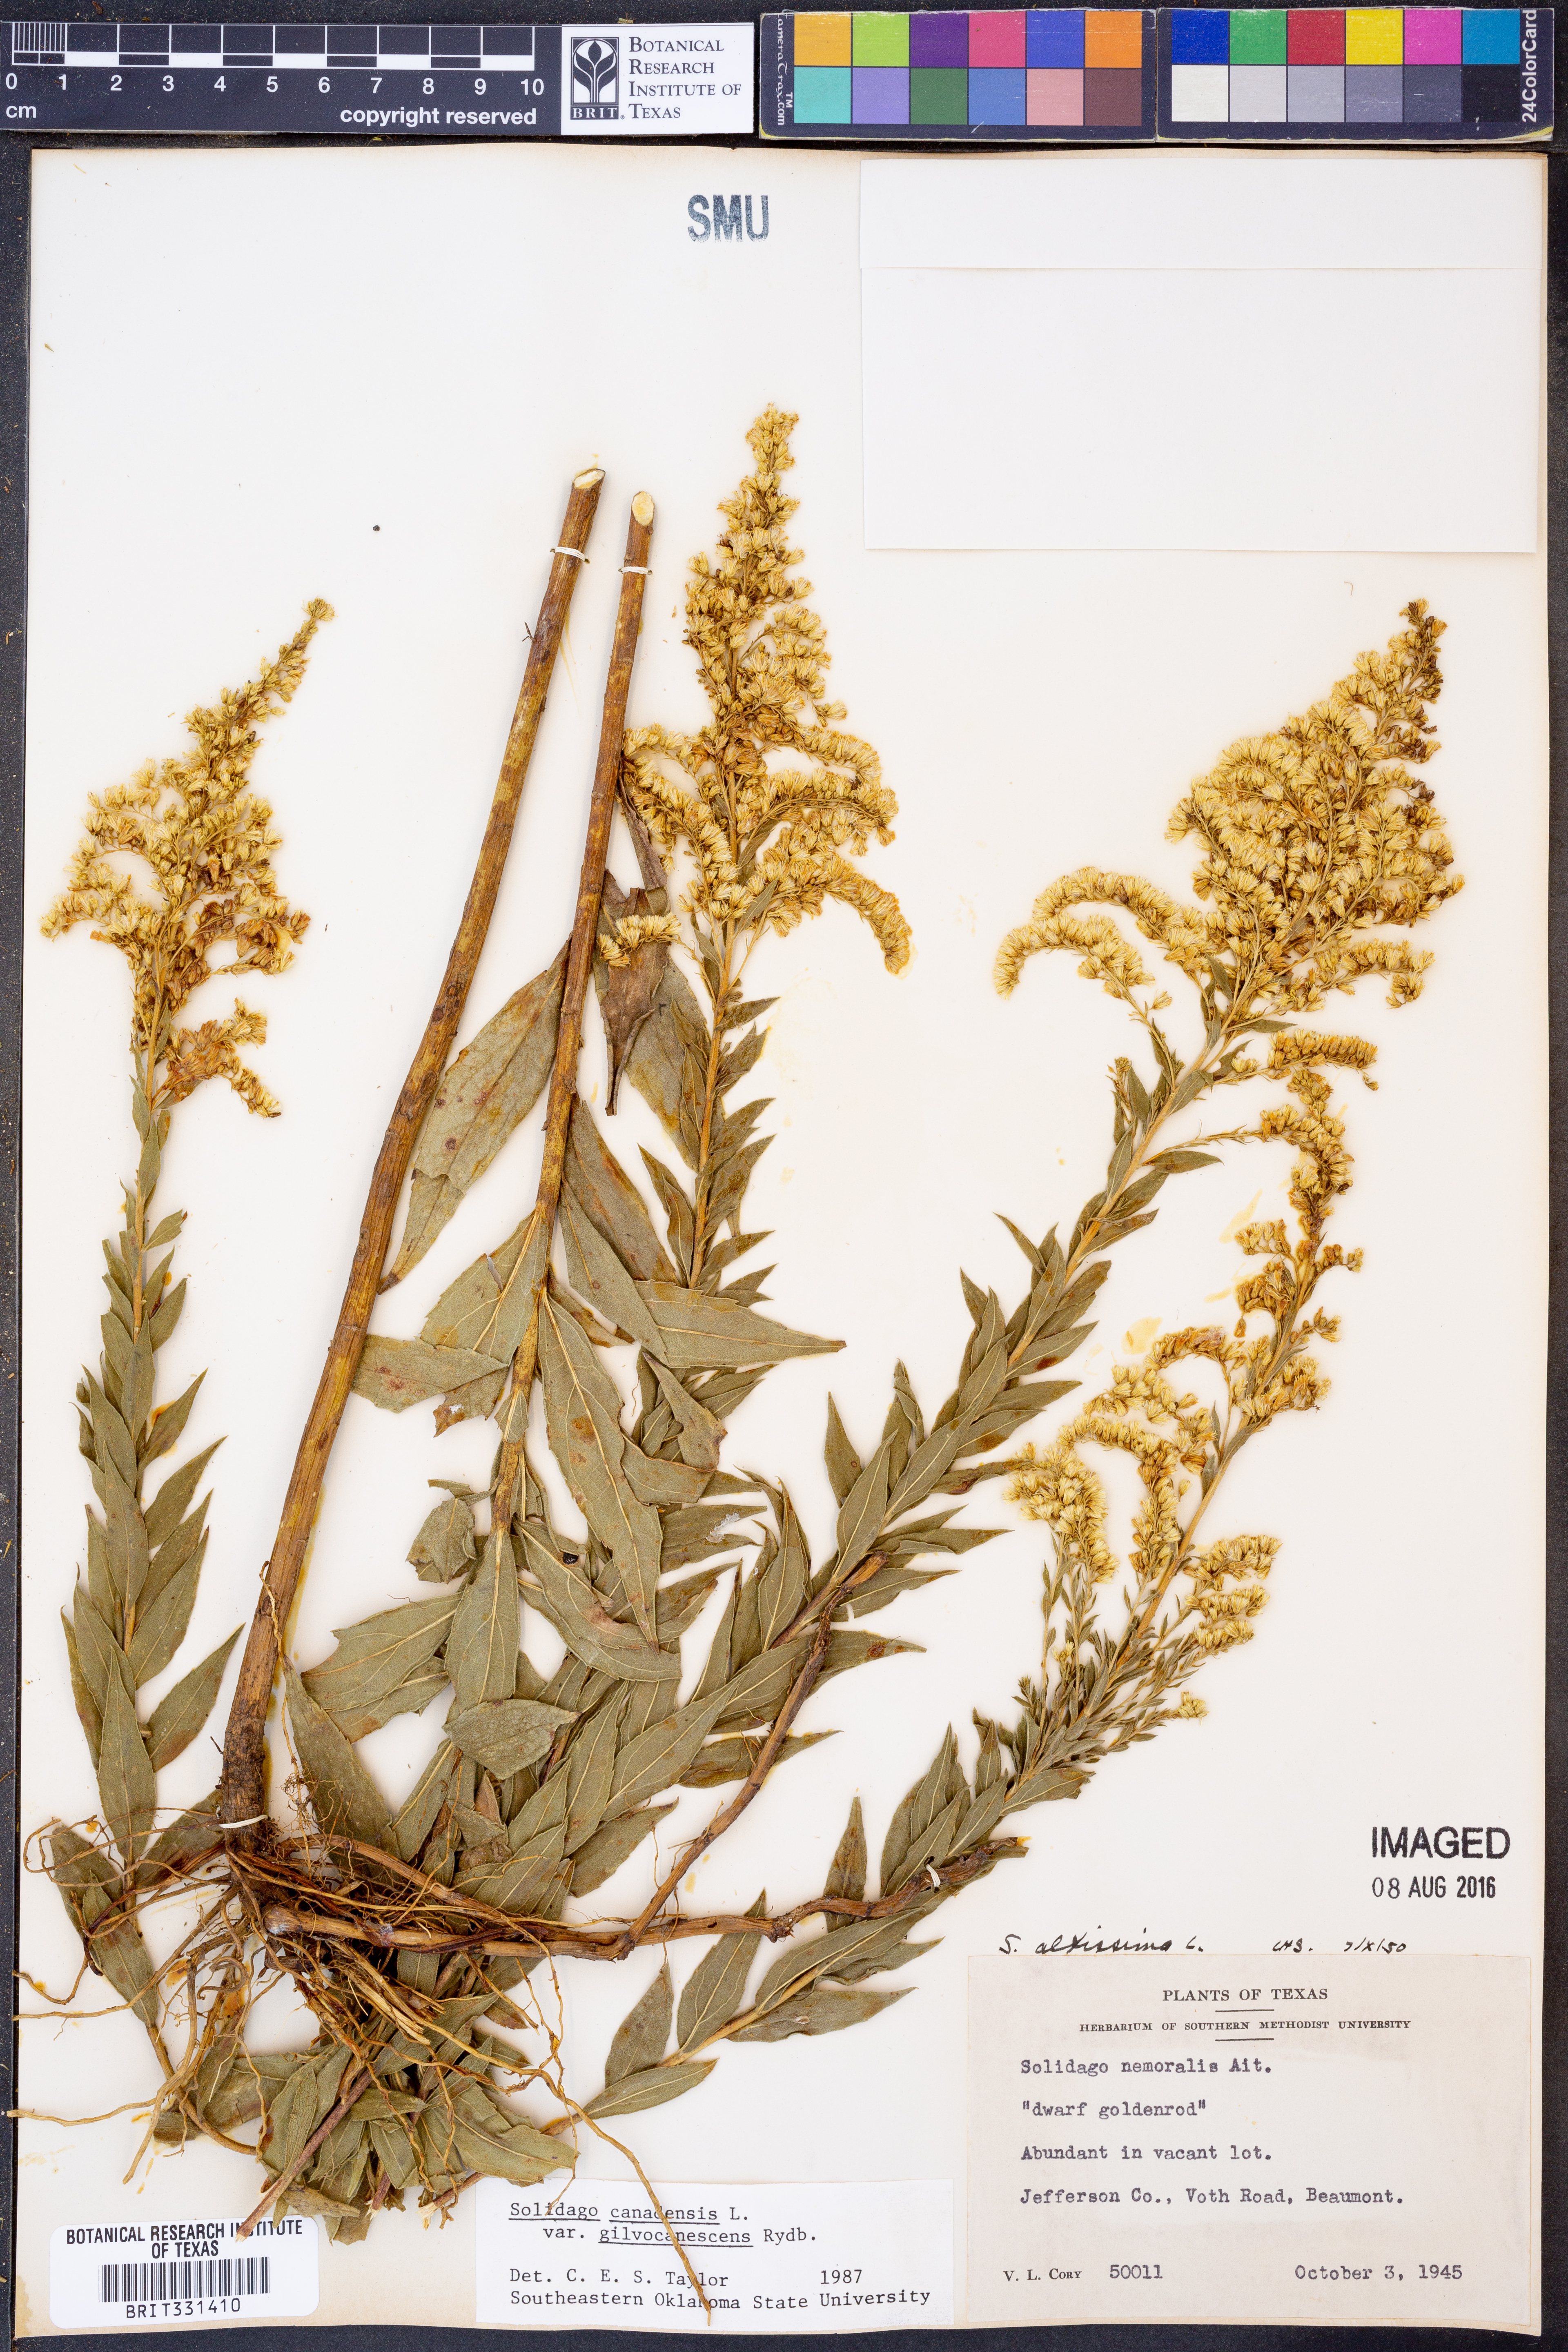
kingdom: Plantae
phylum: Tracheophyta
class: Magnoliopsida
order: Asterales
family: Asteraceae
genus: Solidago
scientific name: Solidago altissima
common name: Late goldenrod
